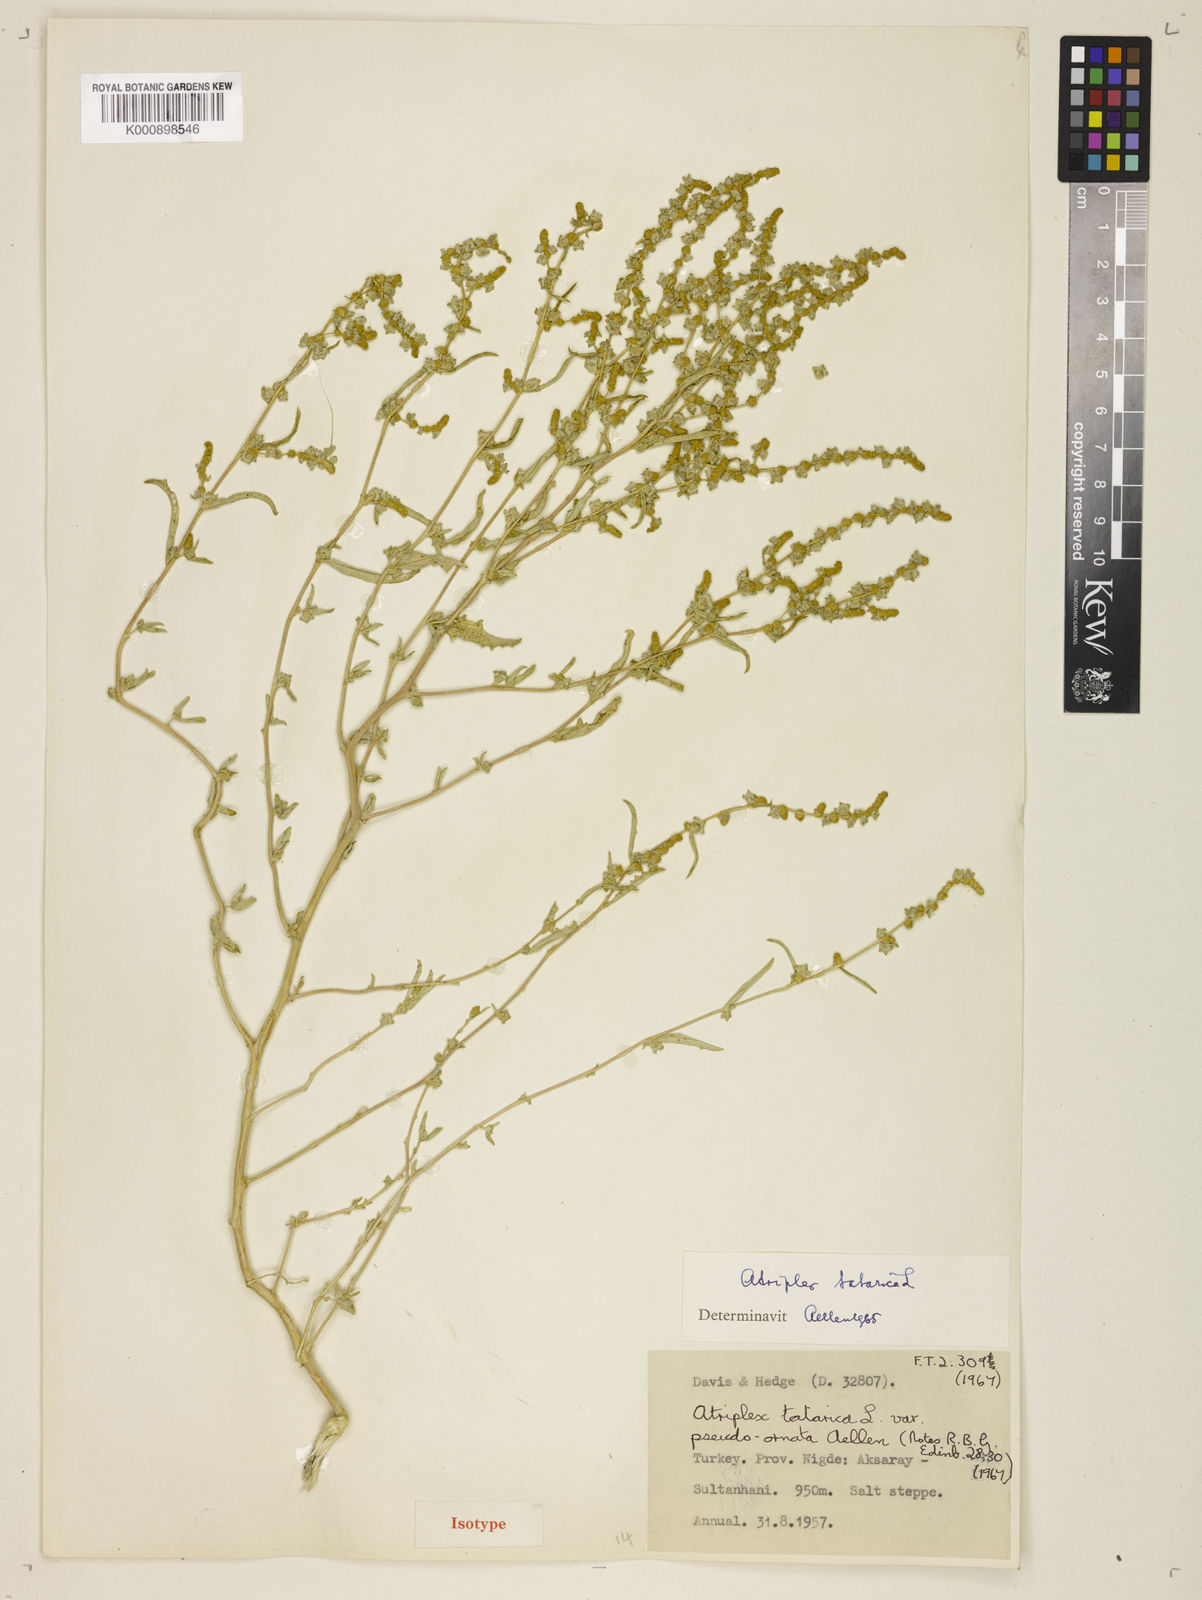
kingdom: Plantae
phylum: Tracheophyta
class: Magnoliopsida
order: Caryophyllales
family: Amaranthaceae
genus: Atriplex
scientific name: Atriplex tatarica
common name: Tatarian orache
